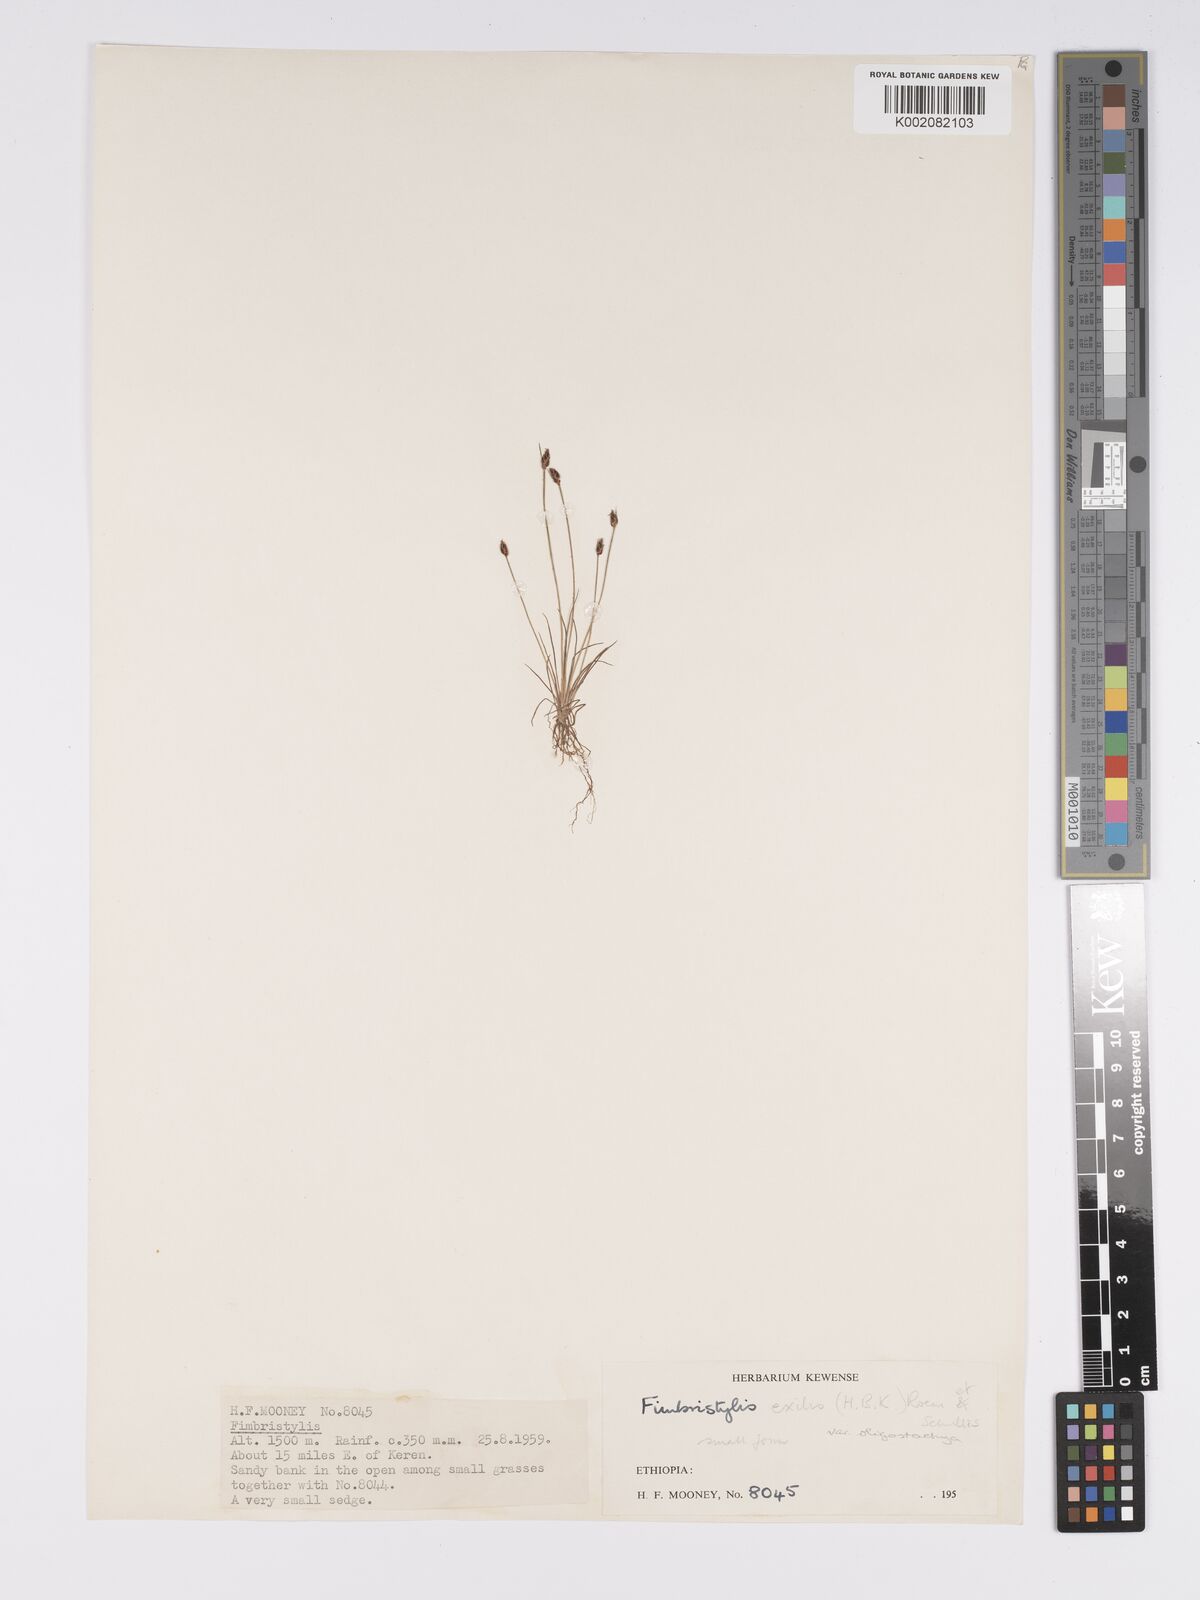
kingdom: Plantae
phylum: Tracheophyta
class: Liliopsida
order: Poales
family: Cyperaceae
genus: Bulbostylis
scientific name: Bulbostylis hispidula
